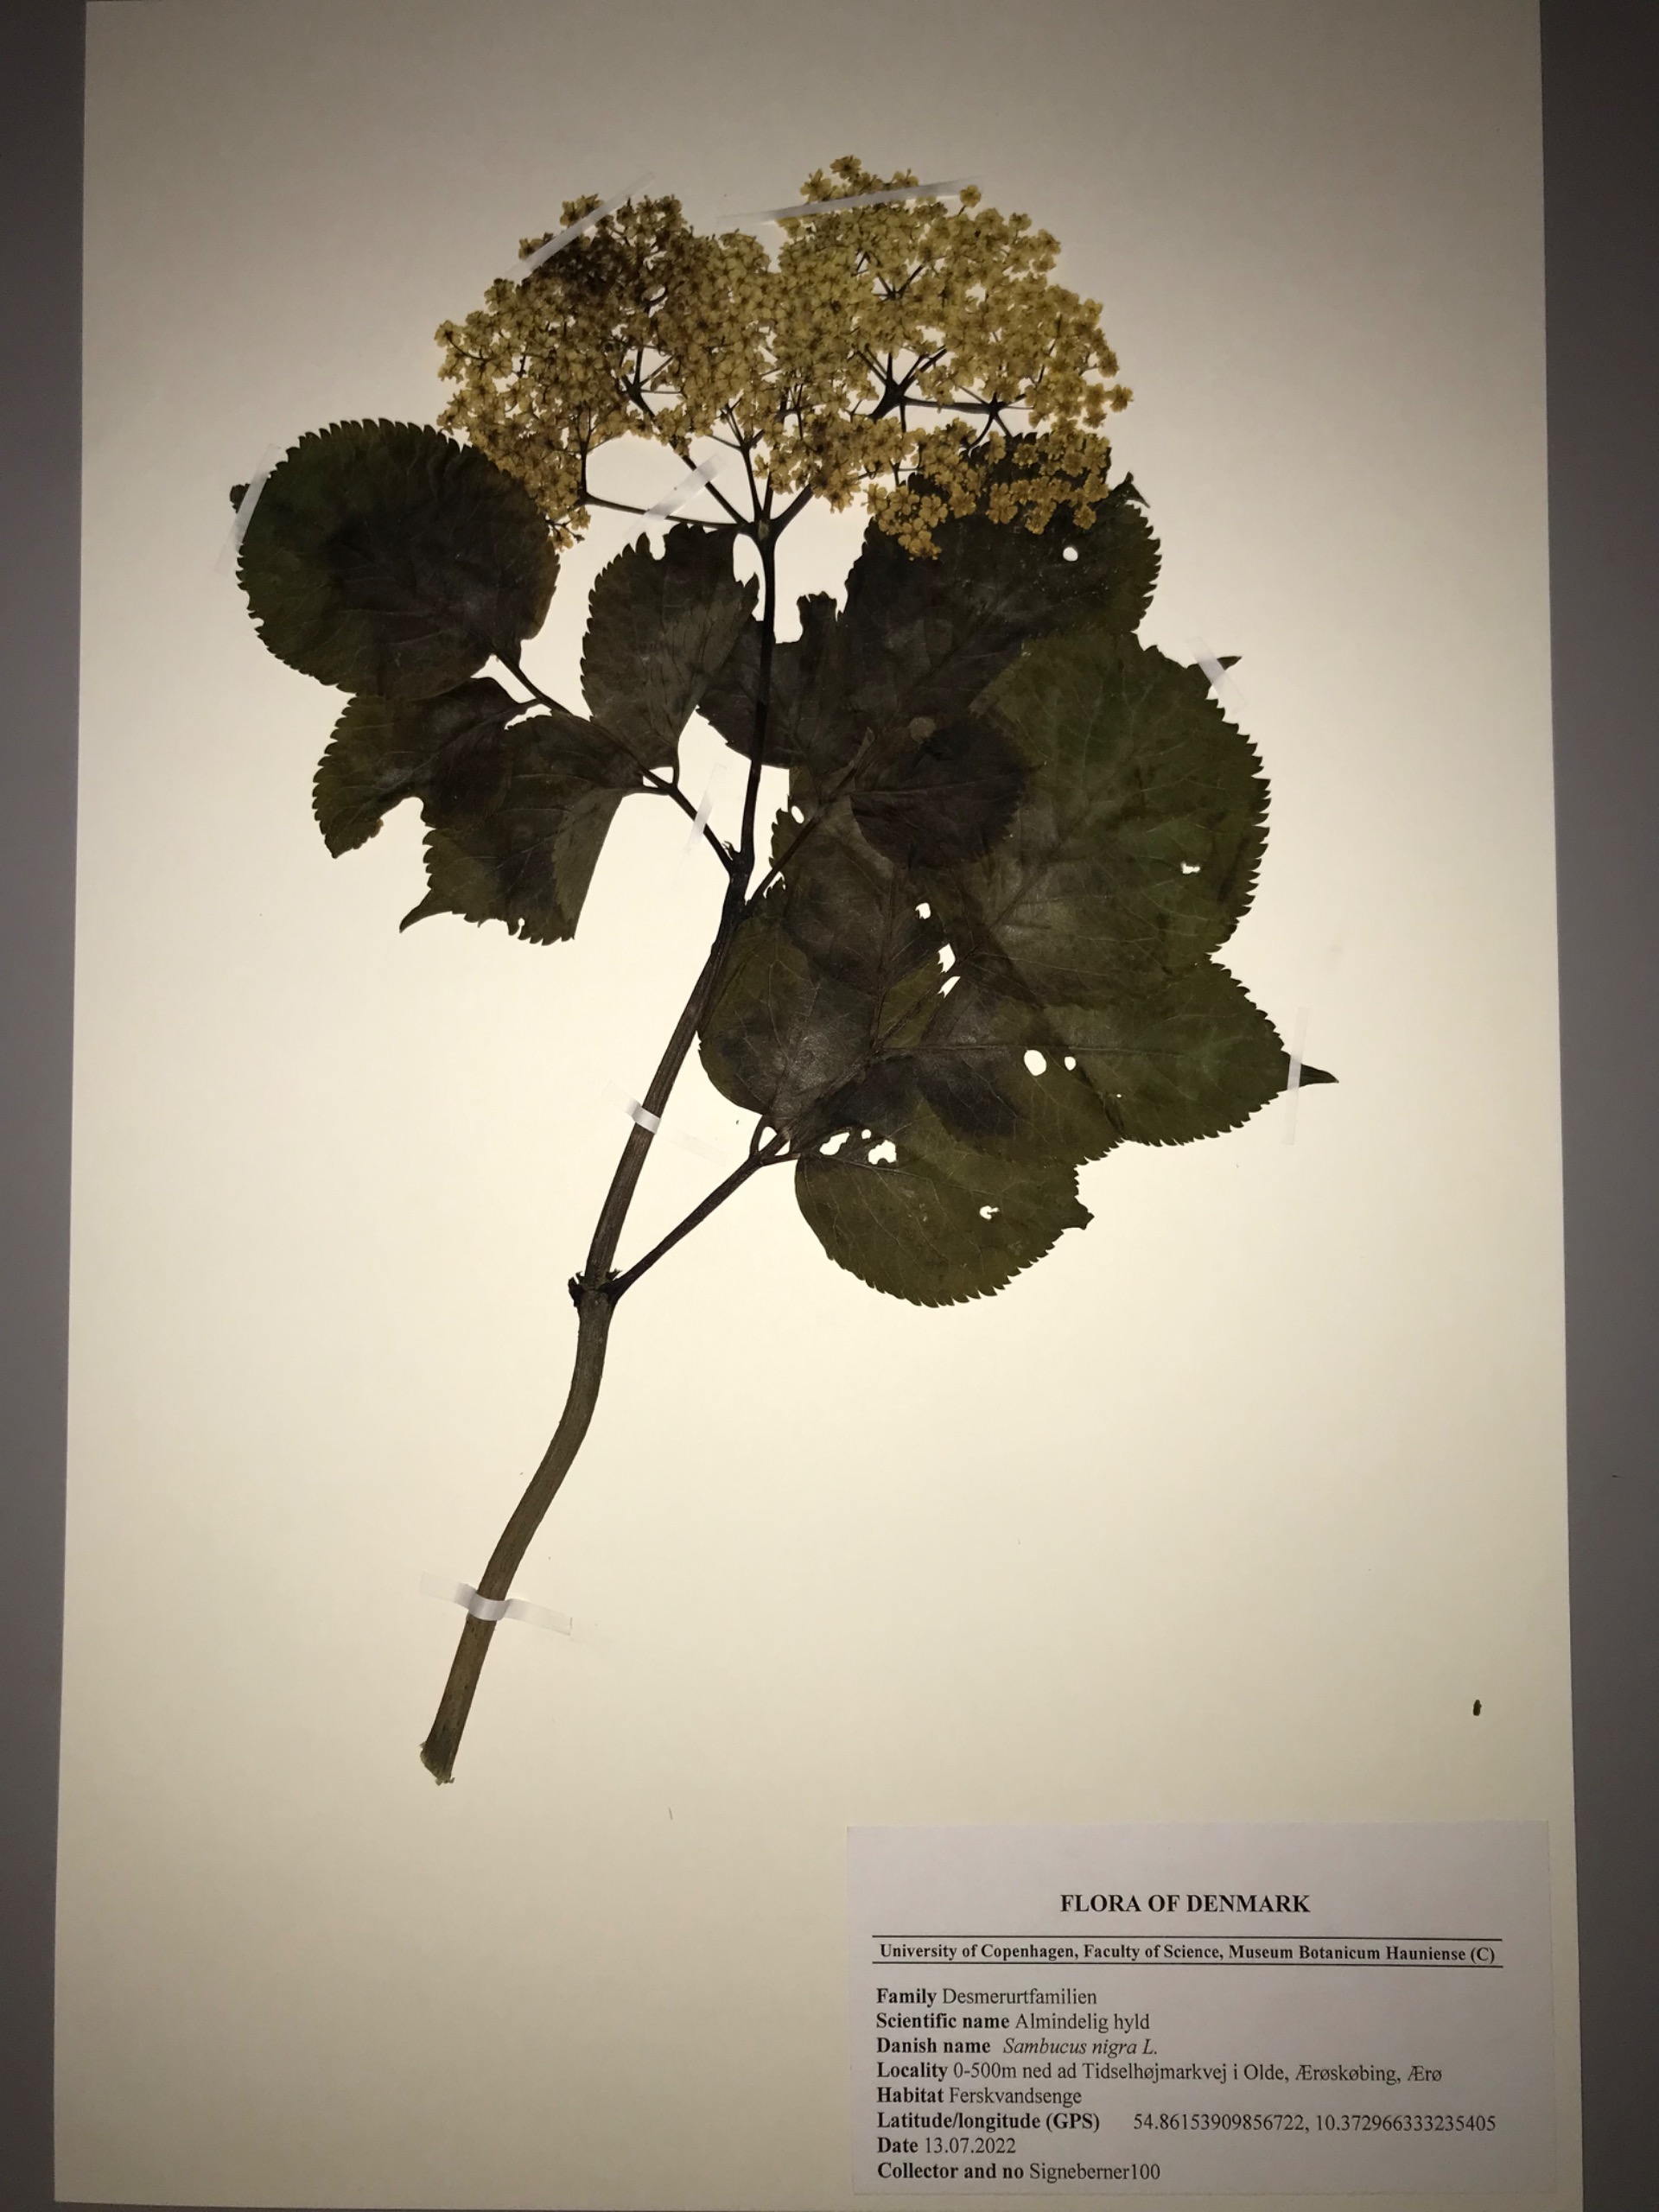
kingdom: Plantae
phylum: Tracheophyta
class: Magnoliopsida
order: Dipsacales
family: Viburnaceae
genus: Sambucus
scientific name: Sambucus nigra
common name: Almindelig hyld
